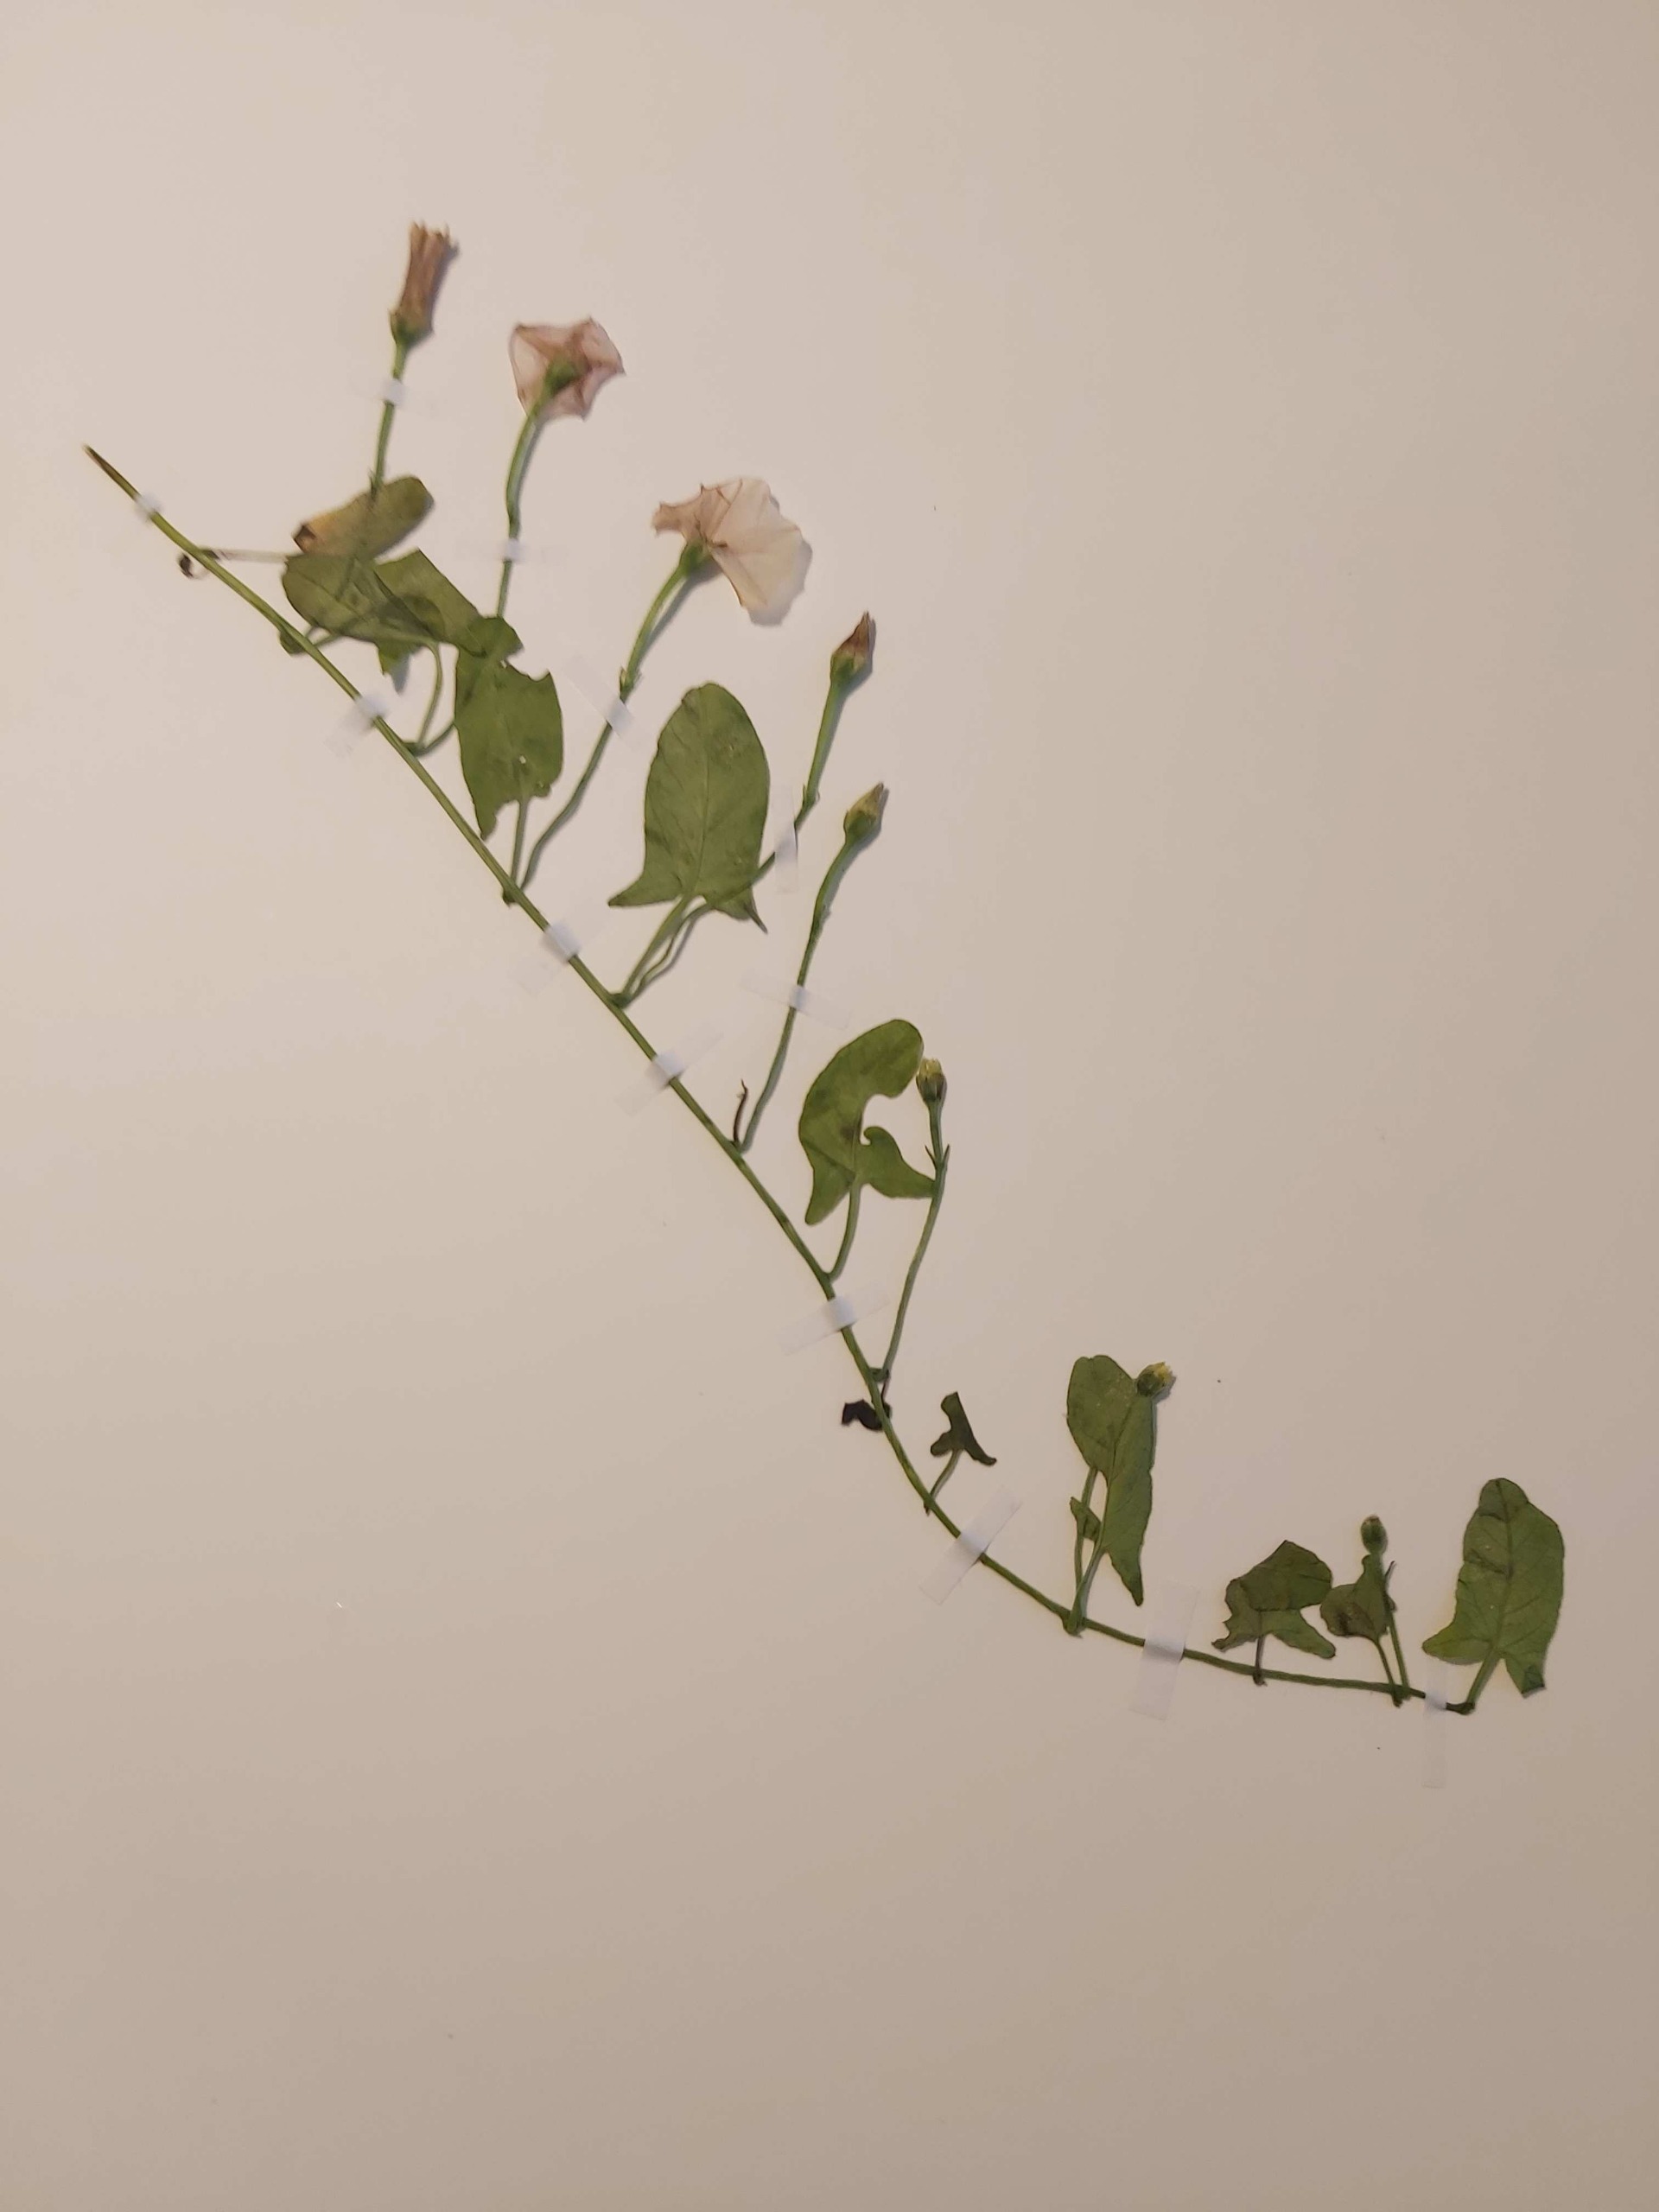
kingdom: Plantae
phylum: Tracheophyta
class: Magnoliopsida
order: Solanales
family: Convolvulaceae
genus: Convolvulus
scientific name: Convolvulus arvensis
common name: Ager-snerle
